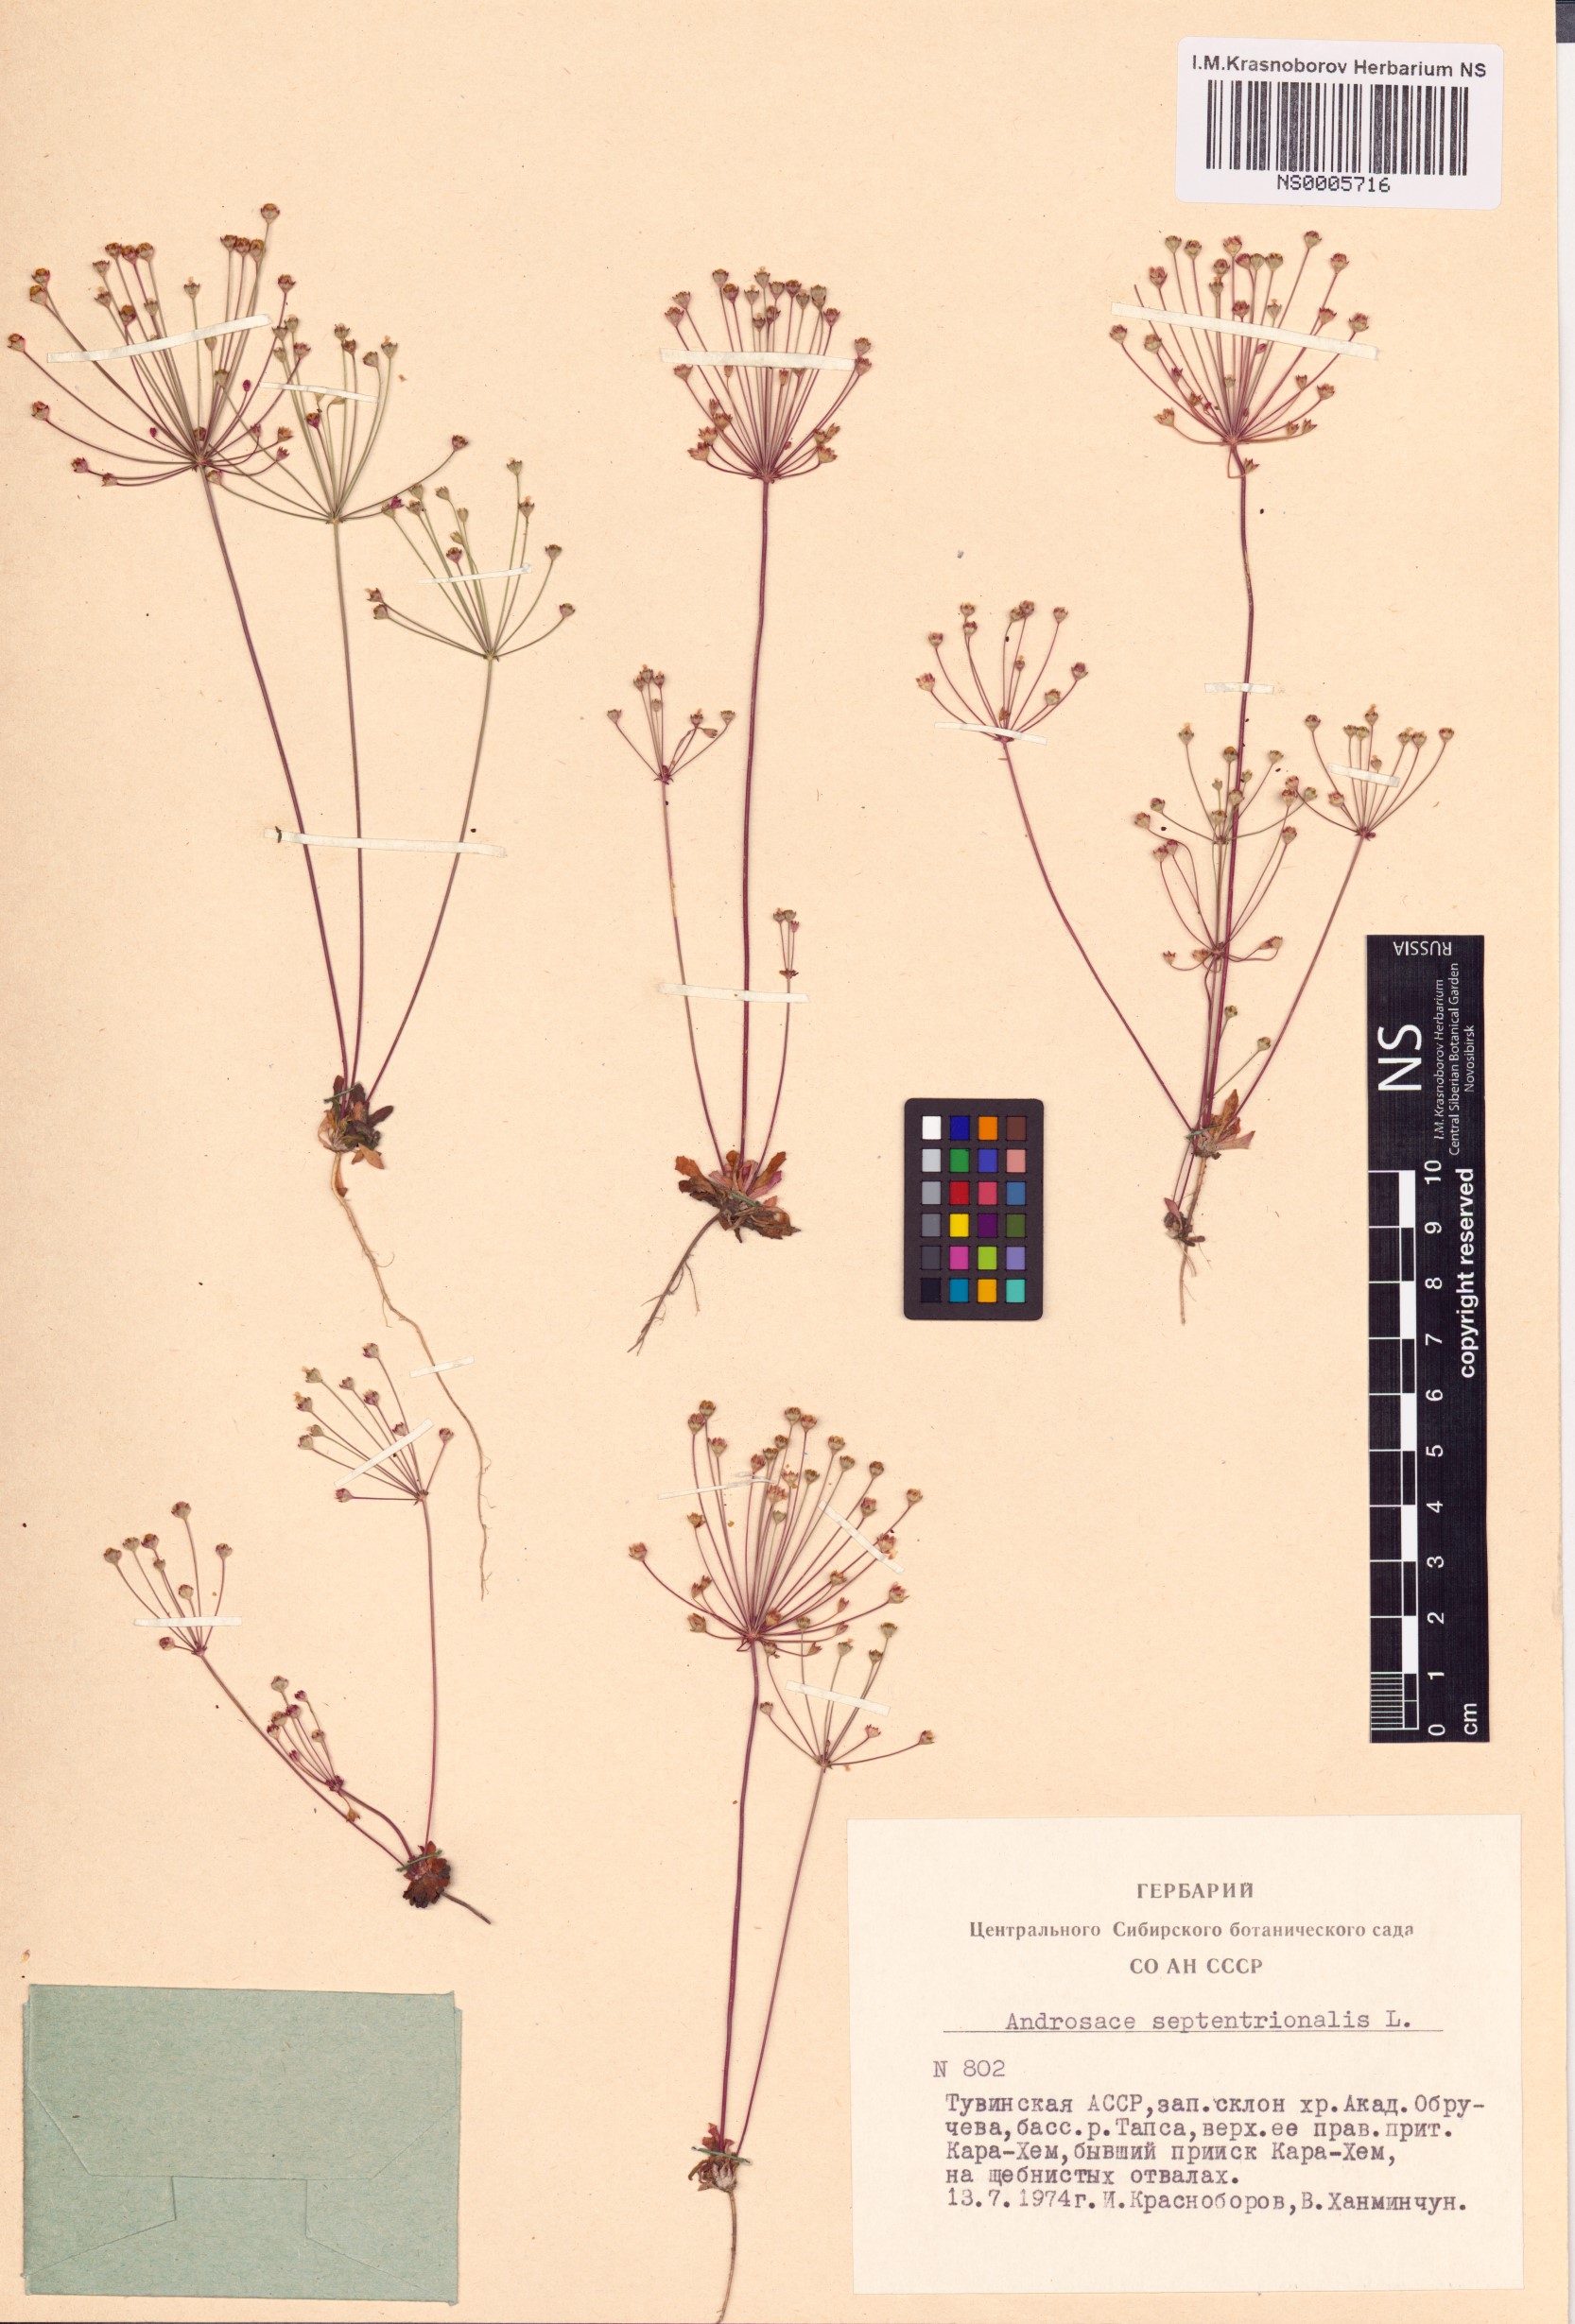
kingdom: Plantae
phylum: Tracheophyta
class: Magnoliopsida
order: Ericales
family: Primulaceae
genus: Androsace
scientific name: Androsace septentrionalis
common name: Hairy northern fairy-candelabra
